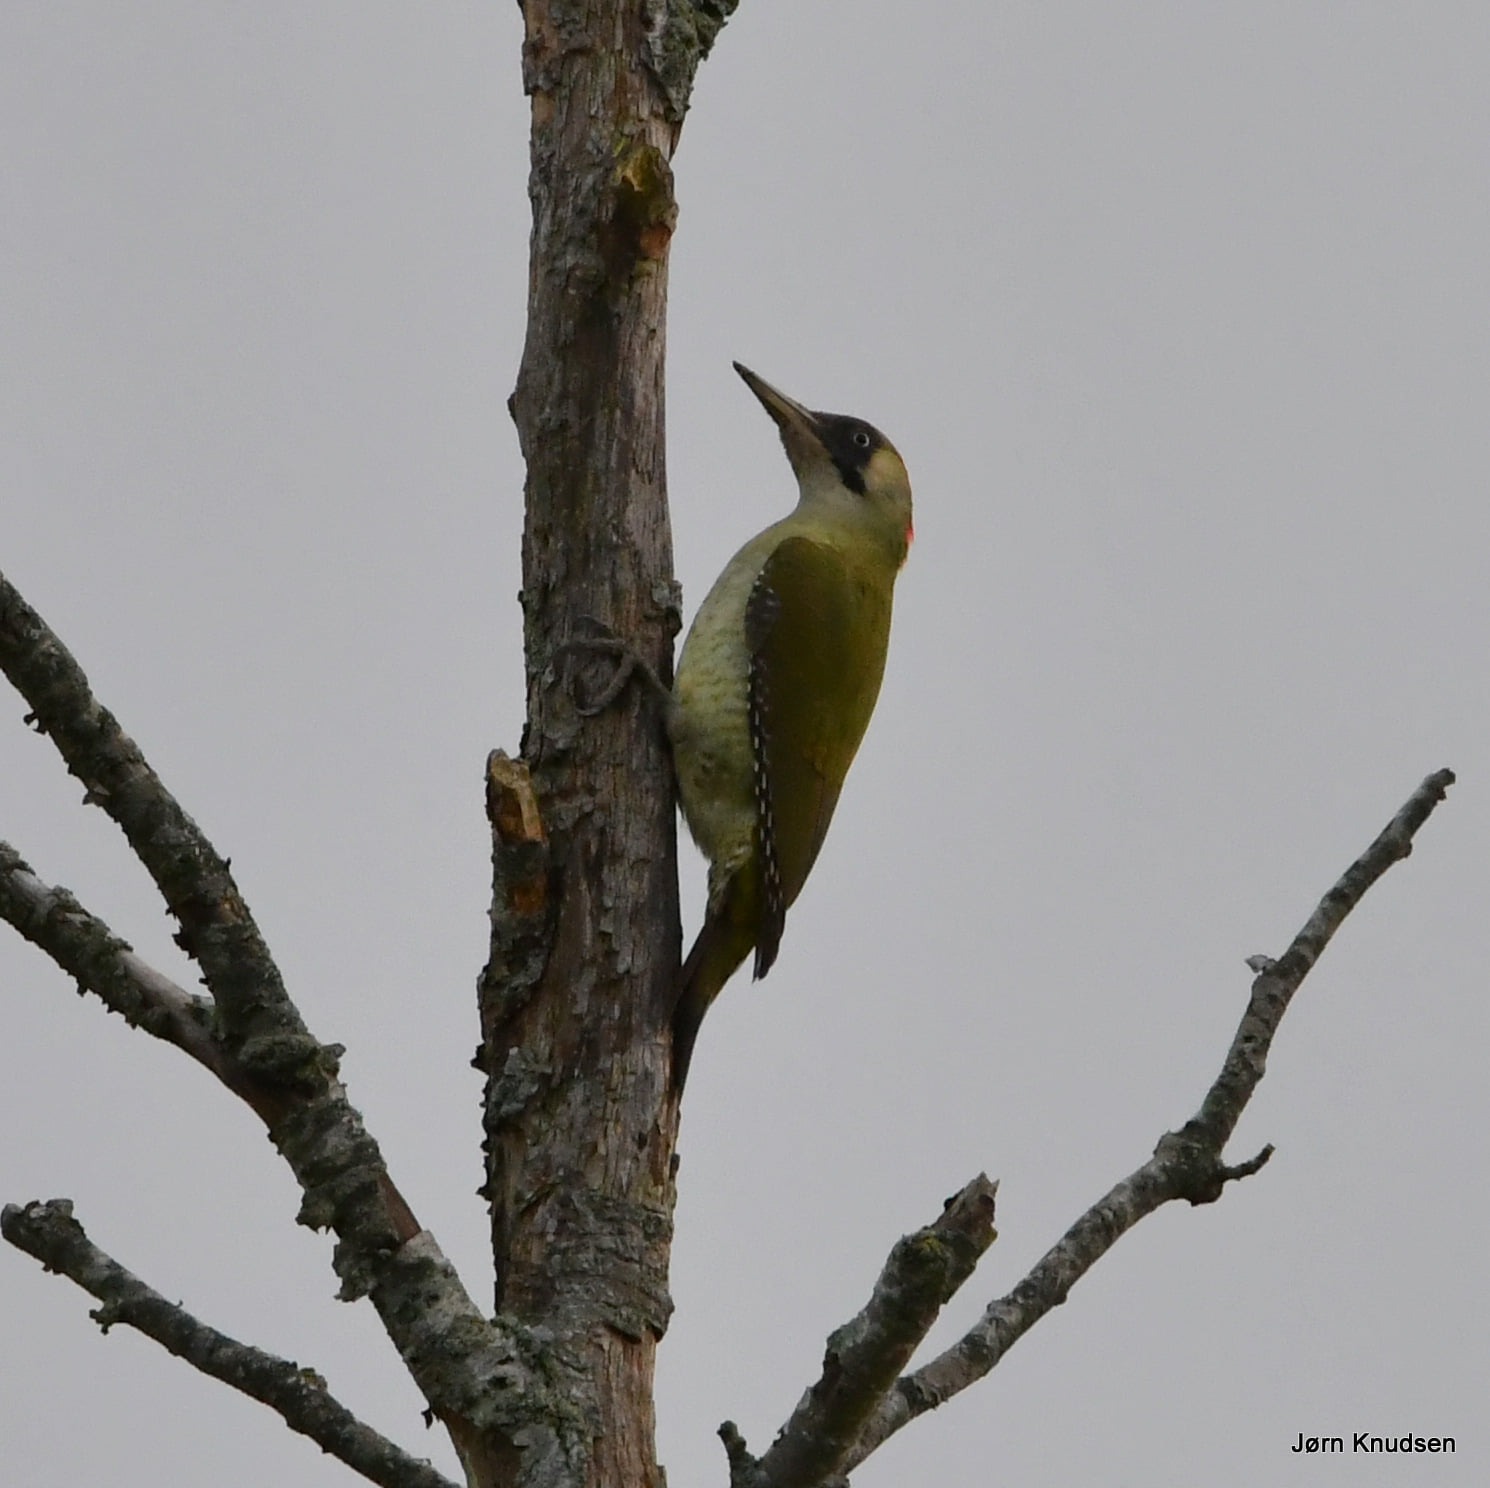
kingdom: Animalia
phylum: Chordata
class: Aves
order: Piciformes
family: Picidae
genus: Picus
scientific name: Picus viridis
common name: Grønspætte
